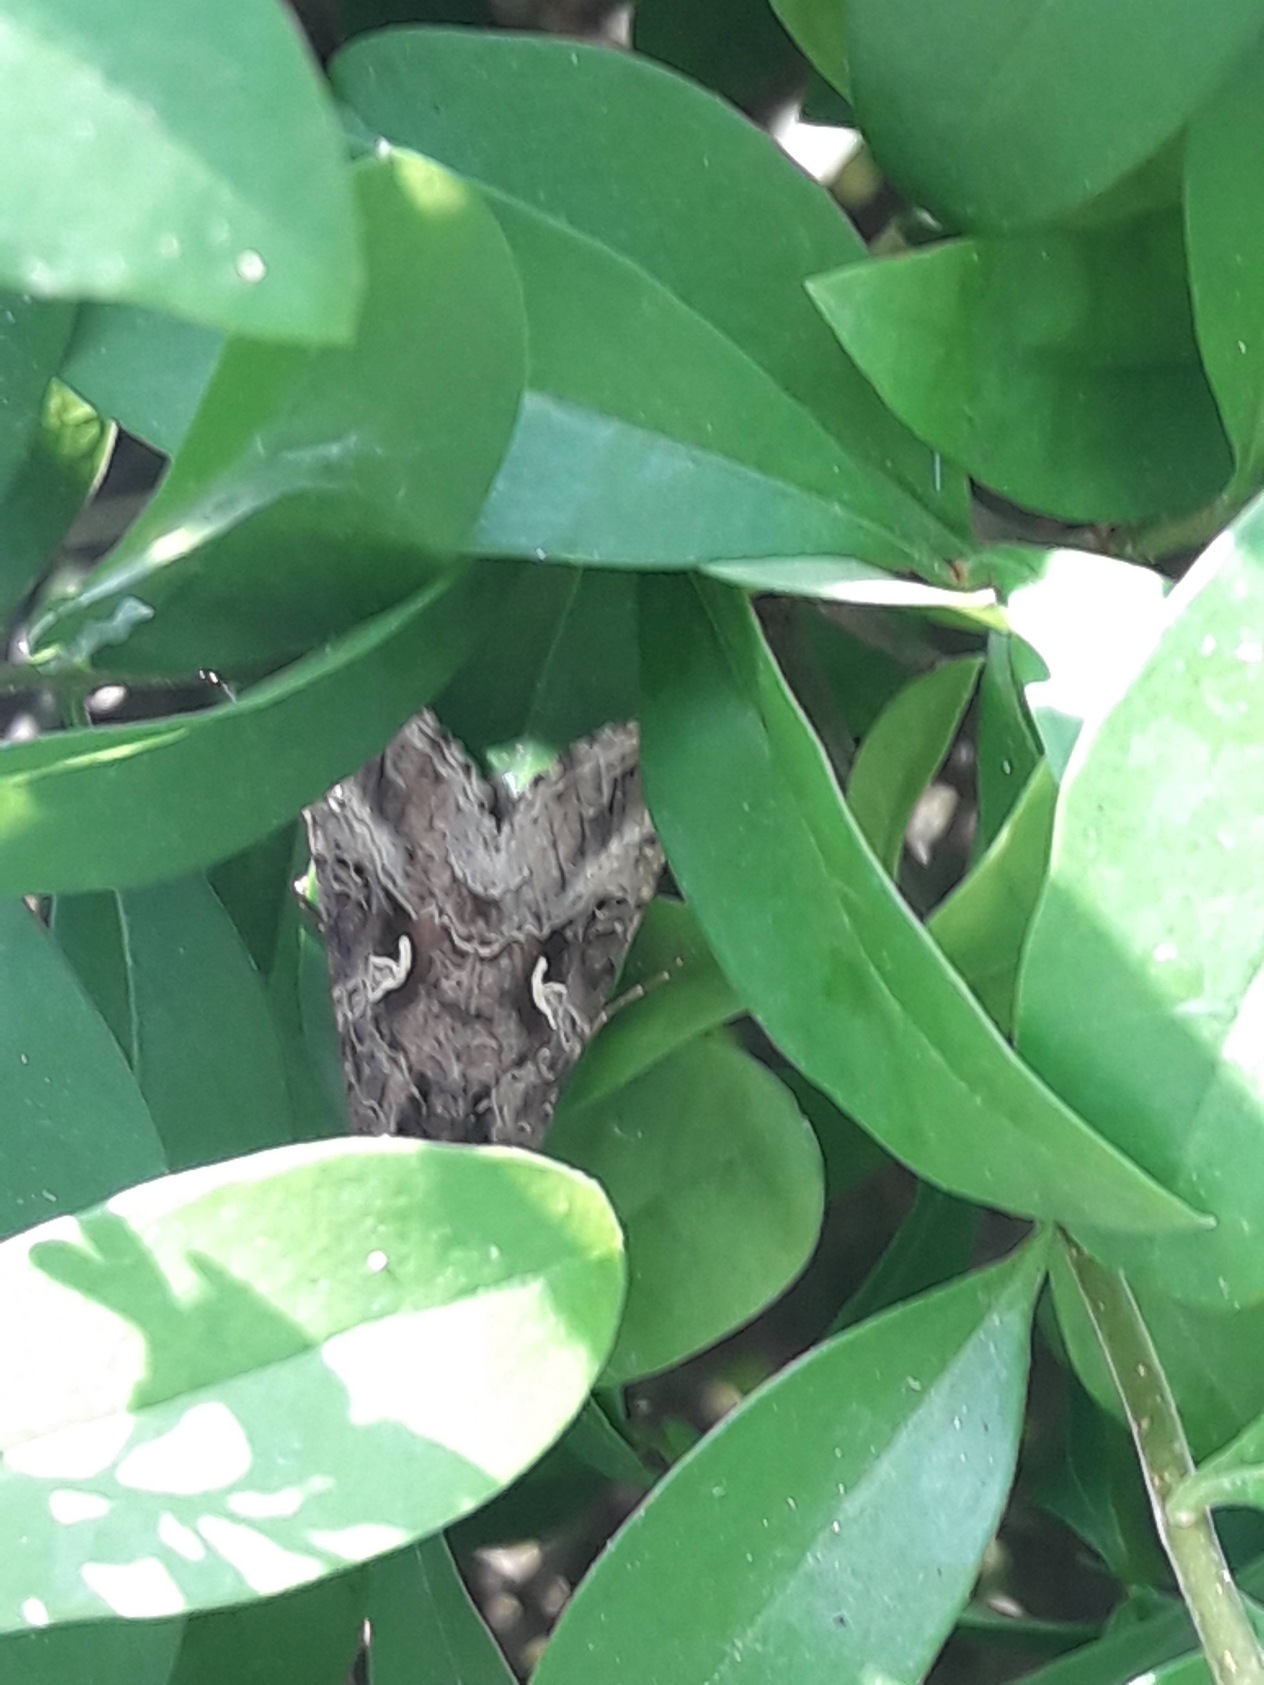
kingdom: Animalia
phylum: Arthropoda
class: Insecta
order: Lepidoptera
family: Noctuidae
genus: Autographa
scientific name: Autographa gamma
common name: Gammaugle
